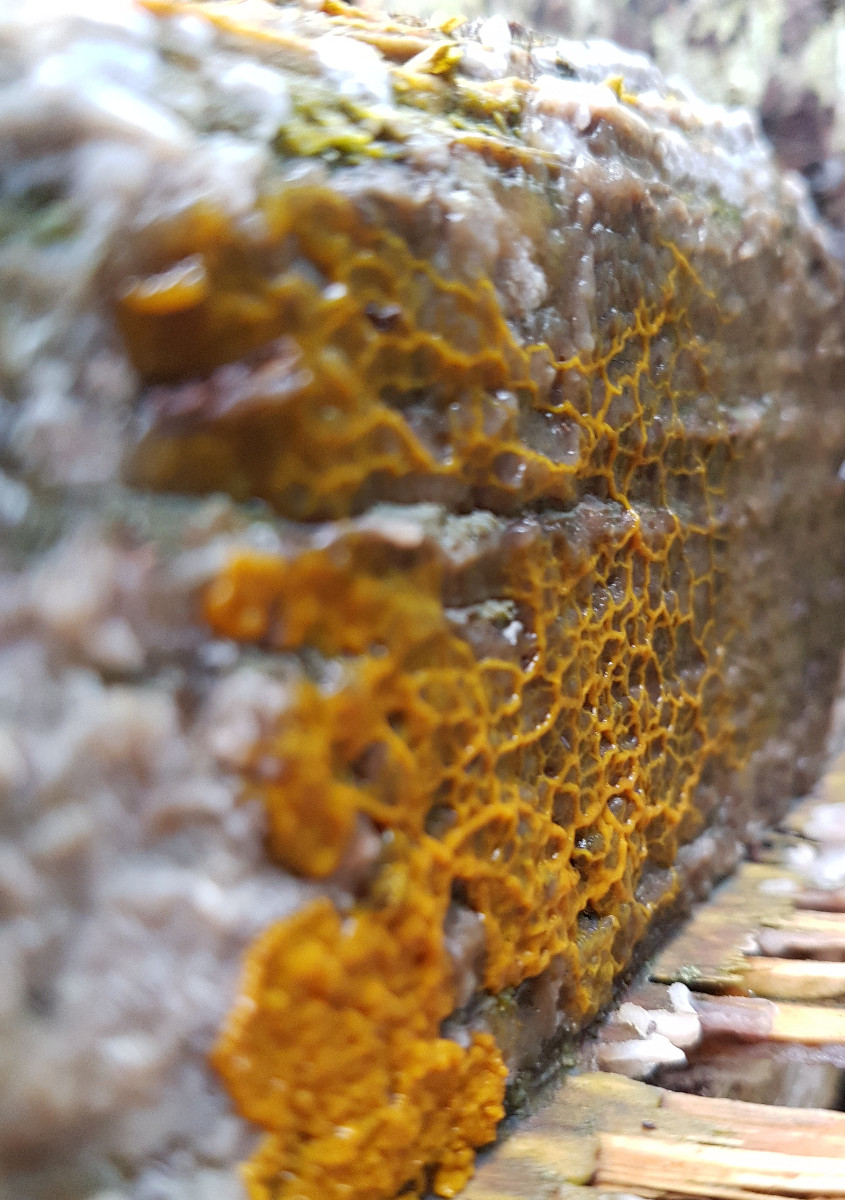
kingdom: Protozoa
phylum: Mycetozoa
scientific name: Mycetozoa
